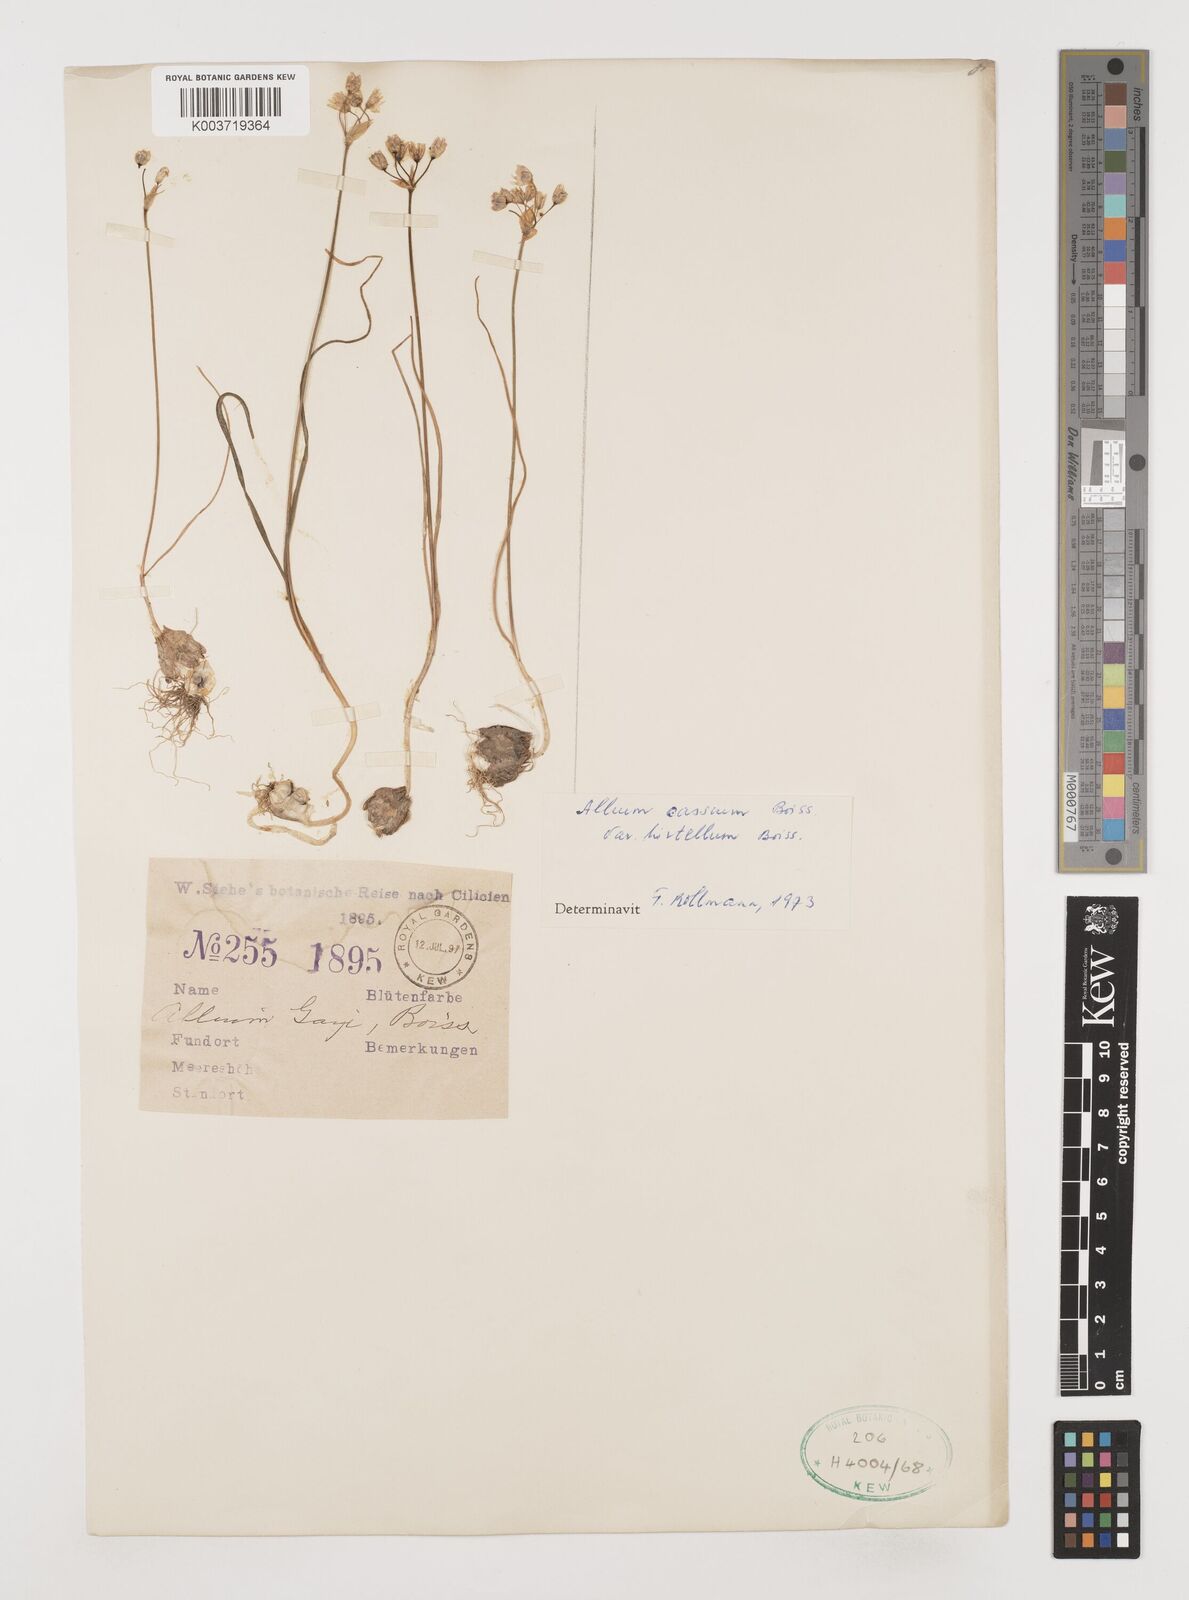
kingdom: Plantae
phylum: Tracheophyta
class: Liliopsida
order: Asparagales
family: Amaryllidaceae
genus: Allium
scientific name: Allium cassium
